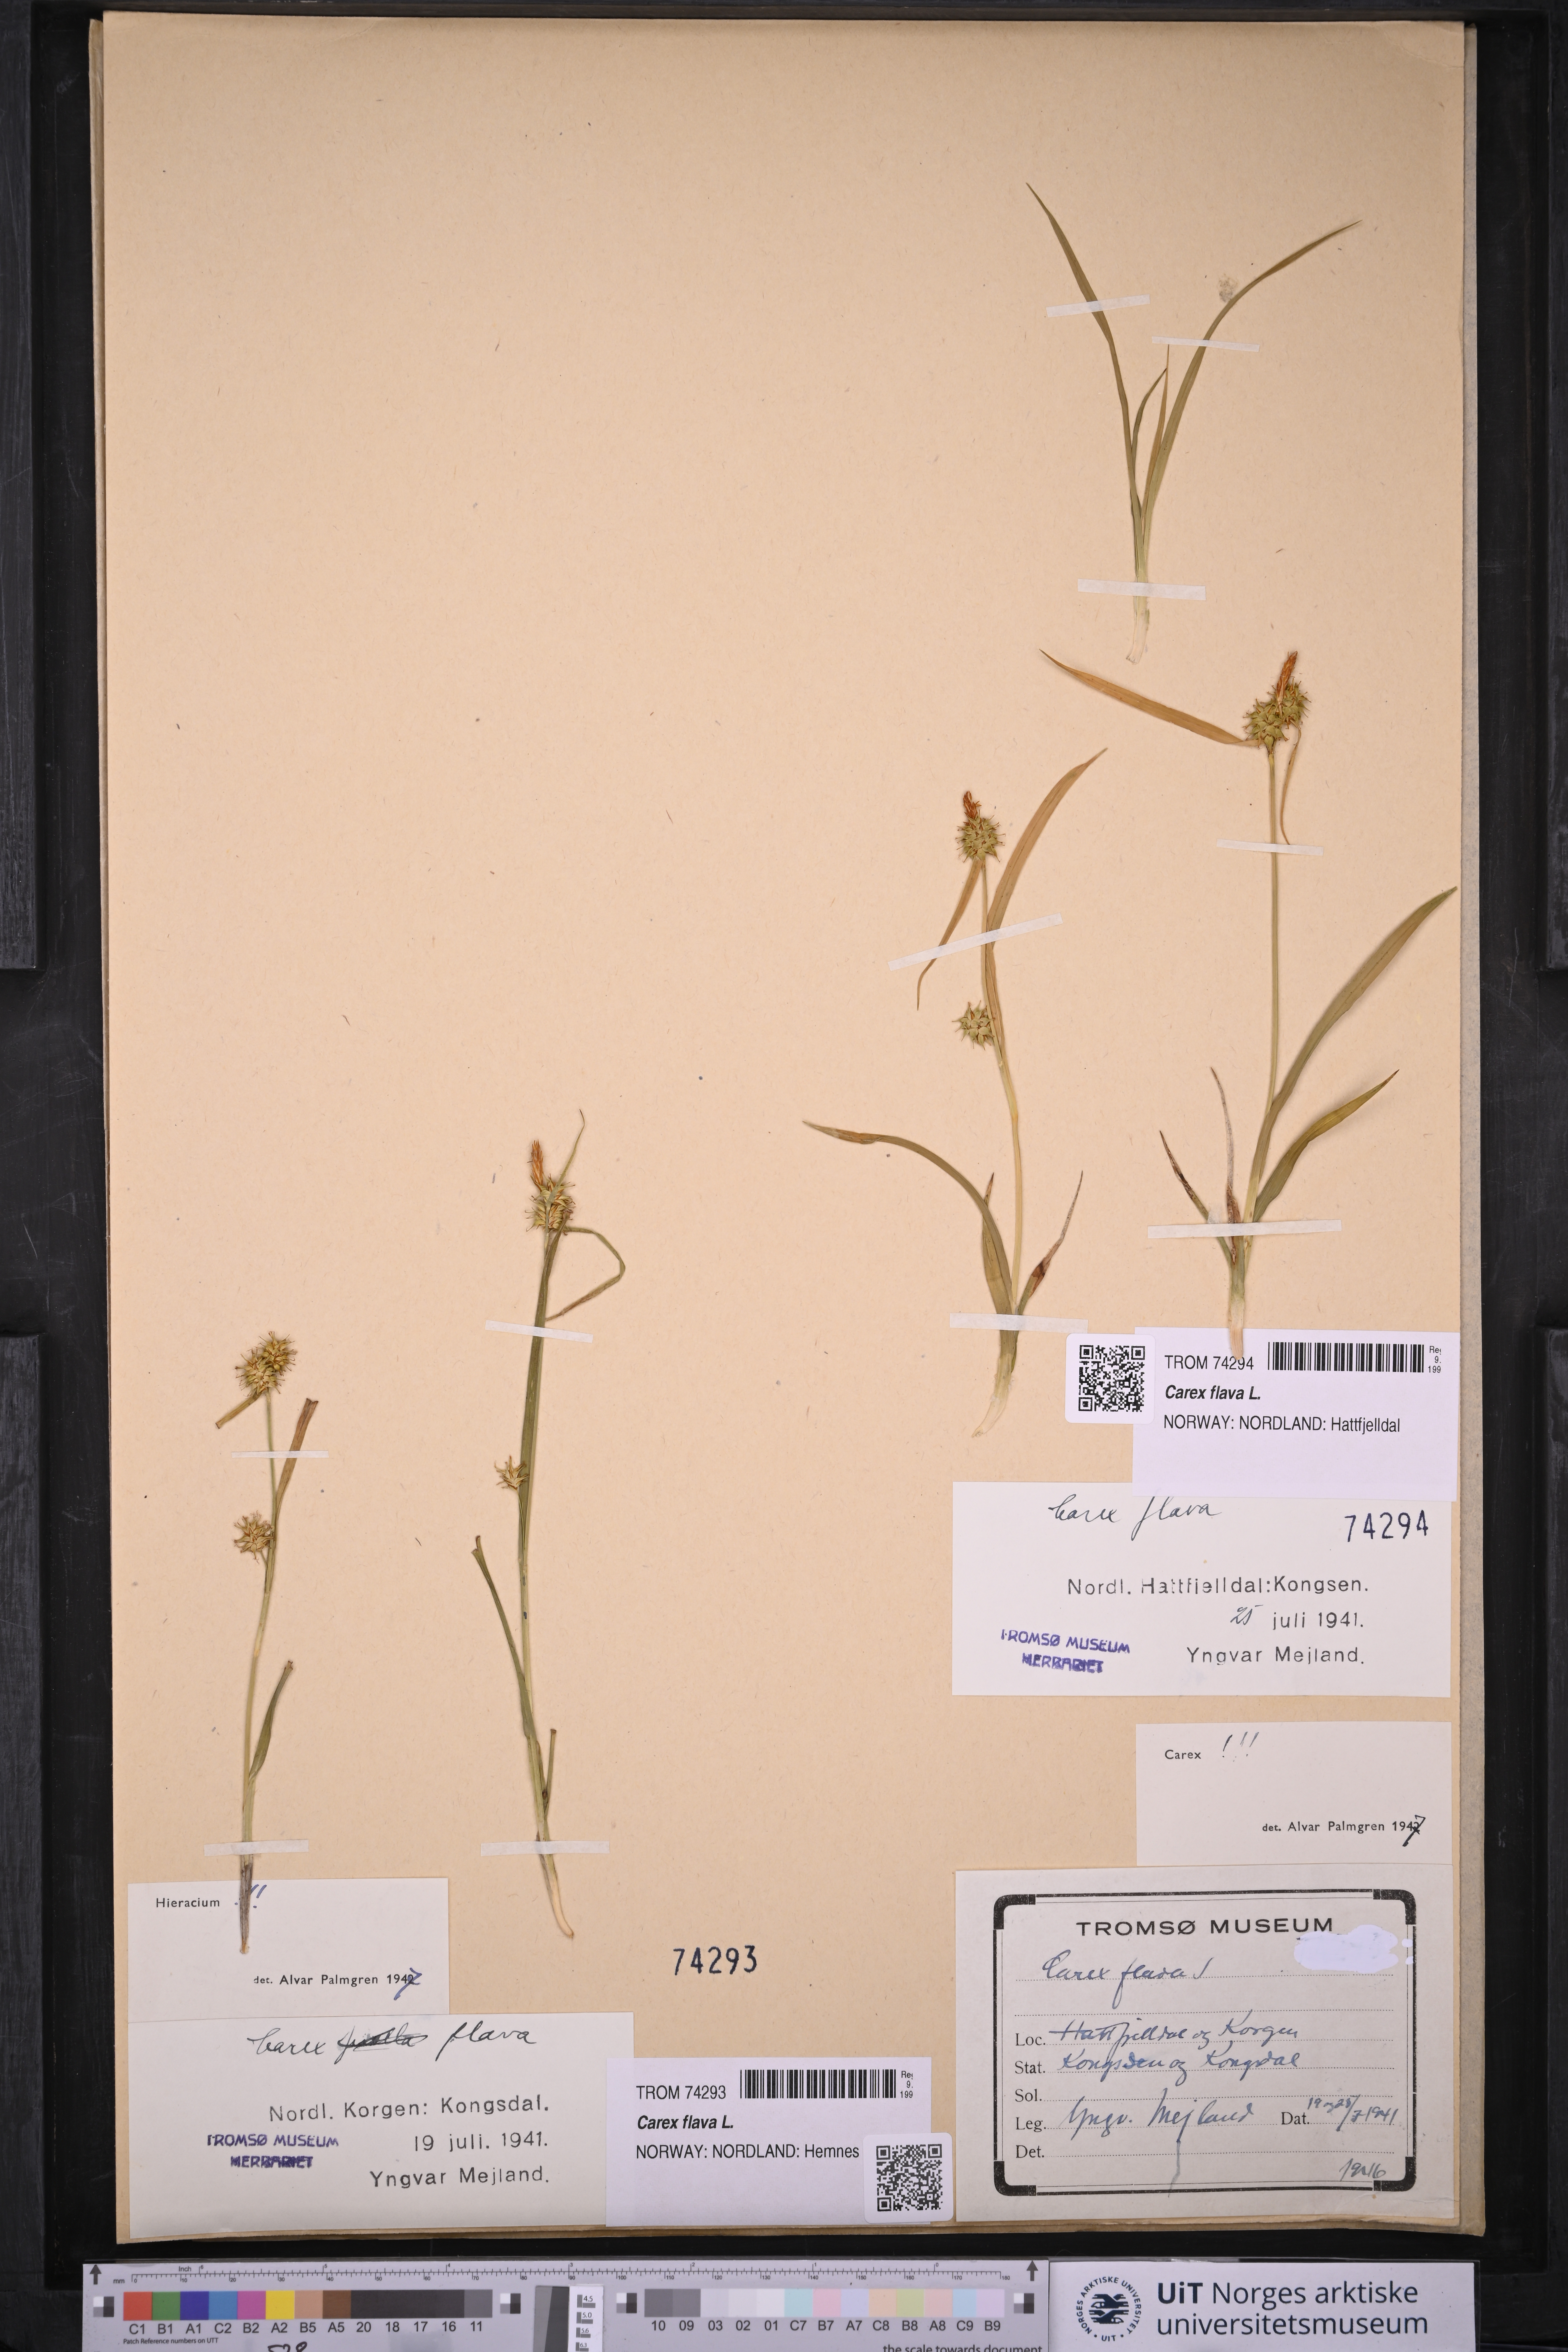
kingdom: Plantae
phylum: Tracheophyta
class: Liliopsida
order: Poales
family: Cyperaceae
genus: Carex
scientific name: Carex flava
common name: Large yellow-sedge
